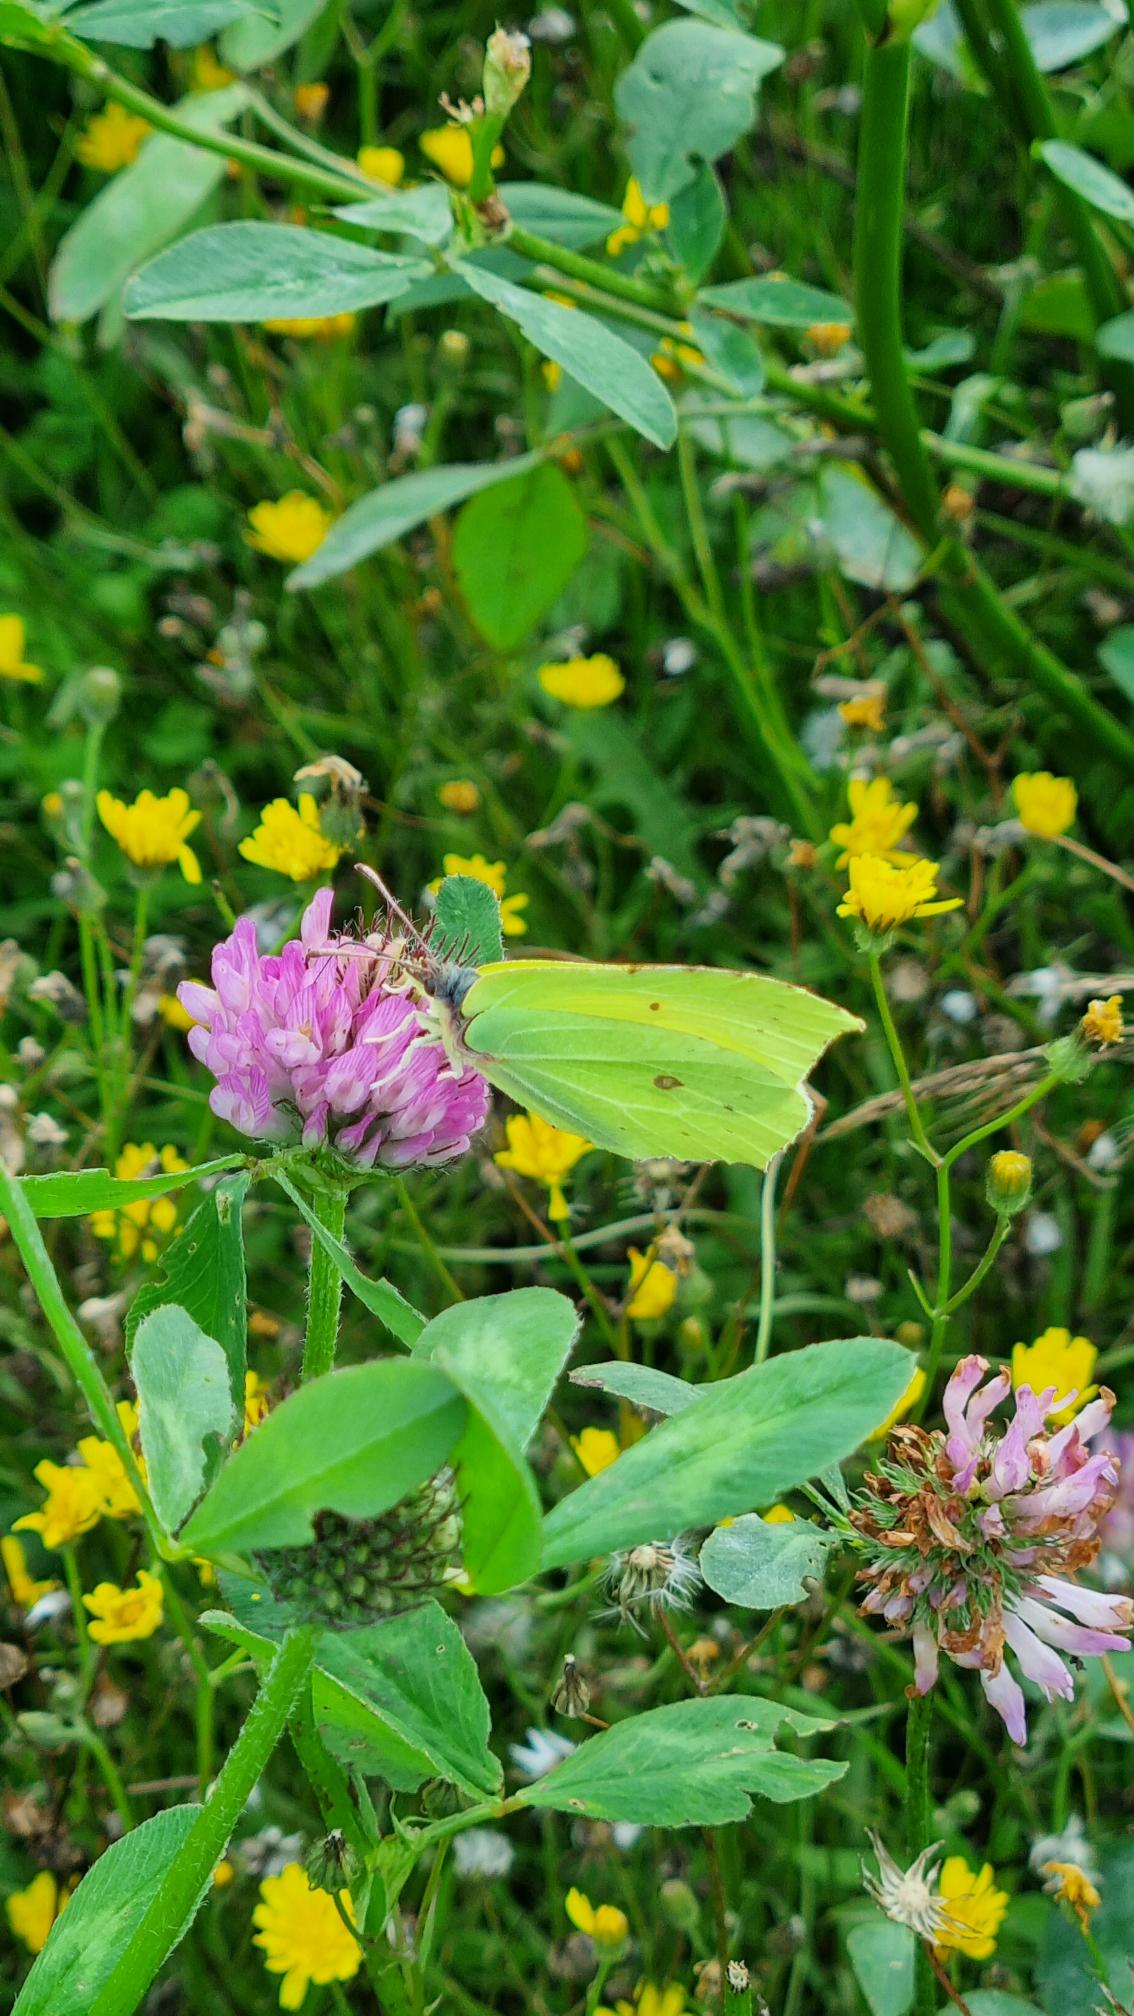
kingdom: Animalia
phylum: Arthropoda
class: Insecta
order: Lepidoptera
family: Pieridae
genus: Gonepteryx
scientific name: Gonepteryx rhamni
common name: Citronsommerfugl
